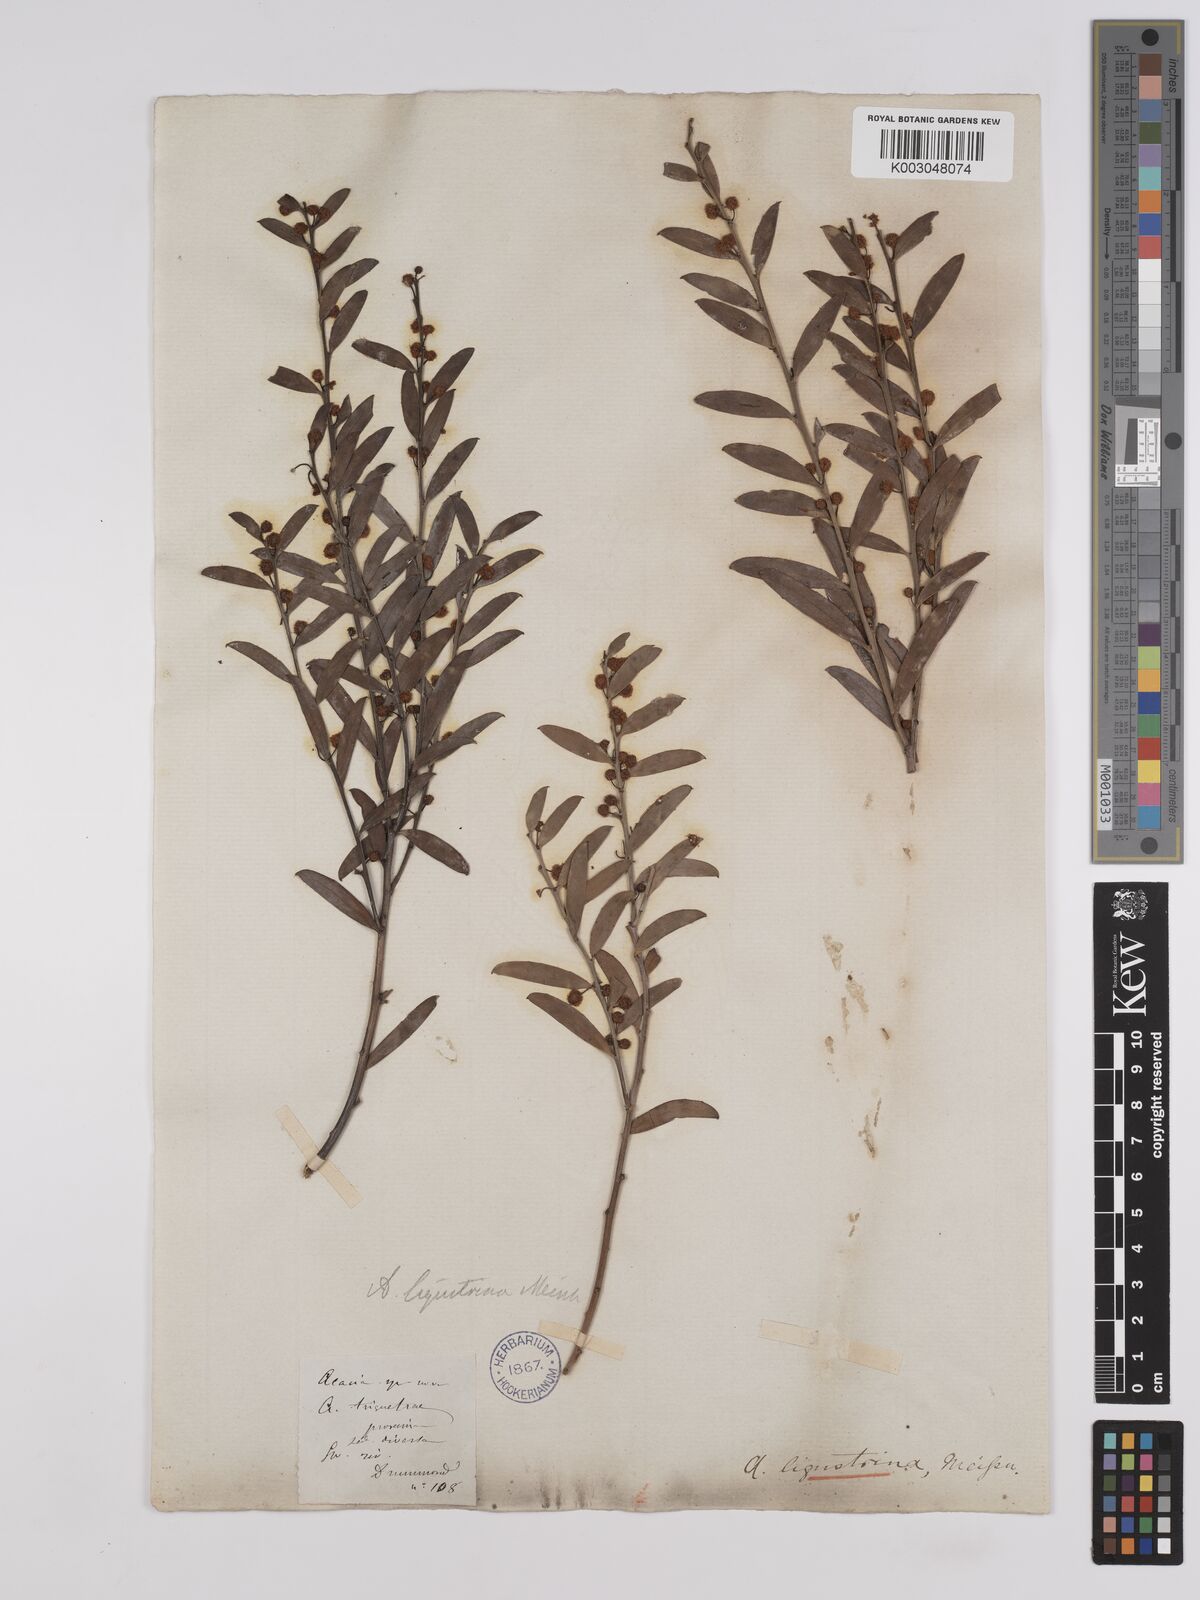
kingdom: Plantae
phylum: Tracheophyta
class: Magnoliopsida
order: Fabales
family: Fabaceae
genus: Acacia
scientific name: Acacia ligustrina
